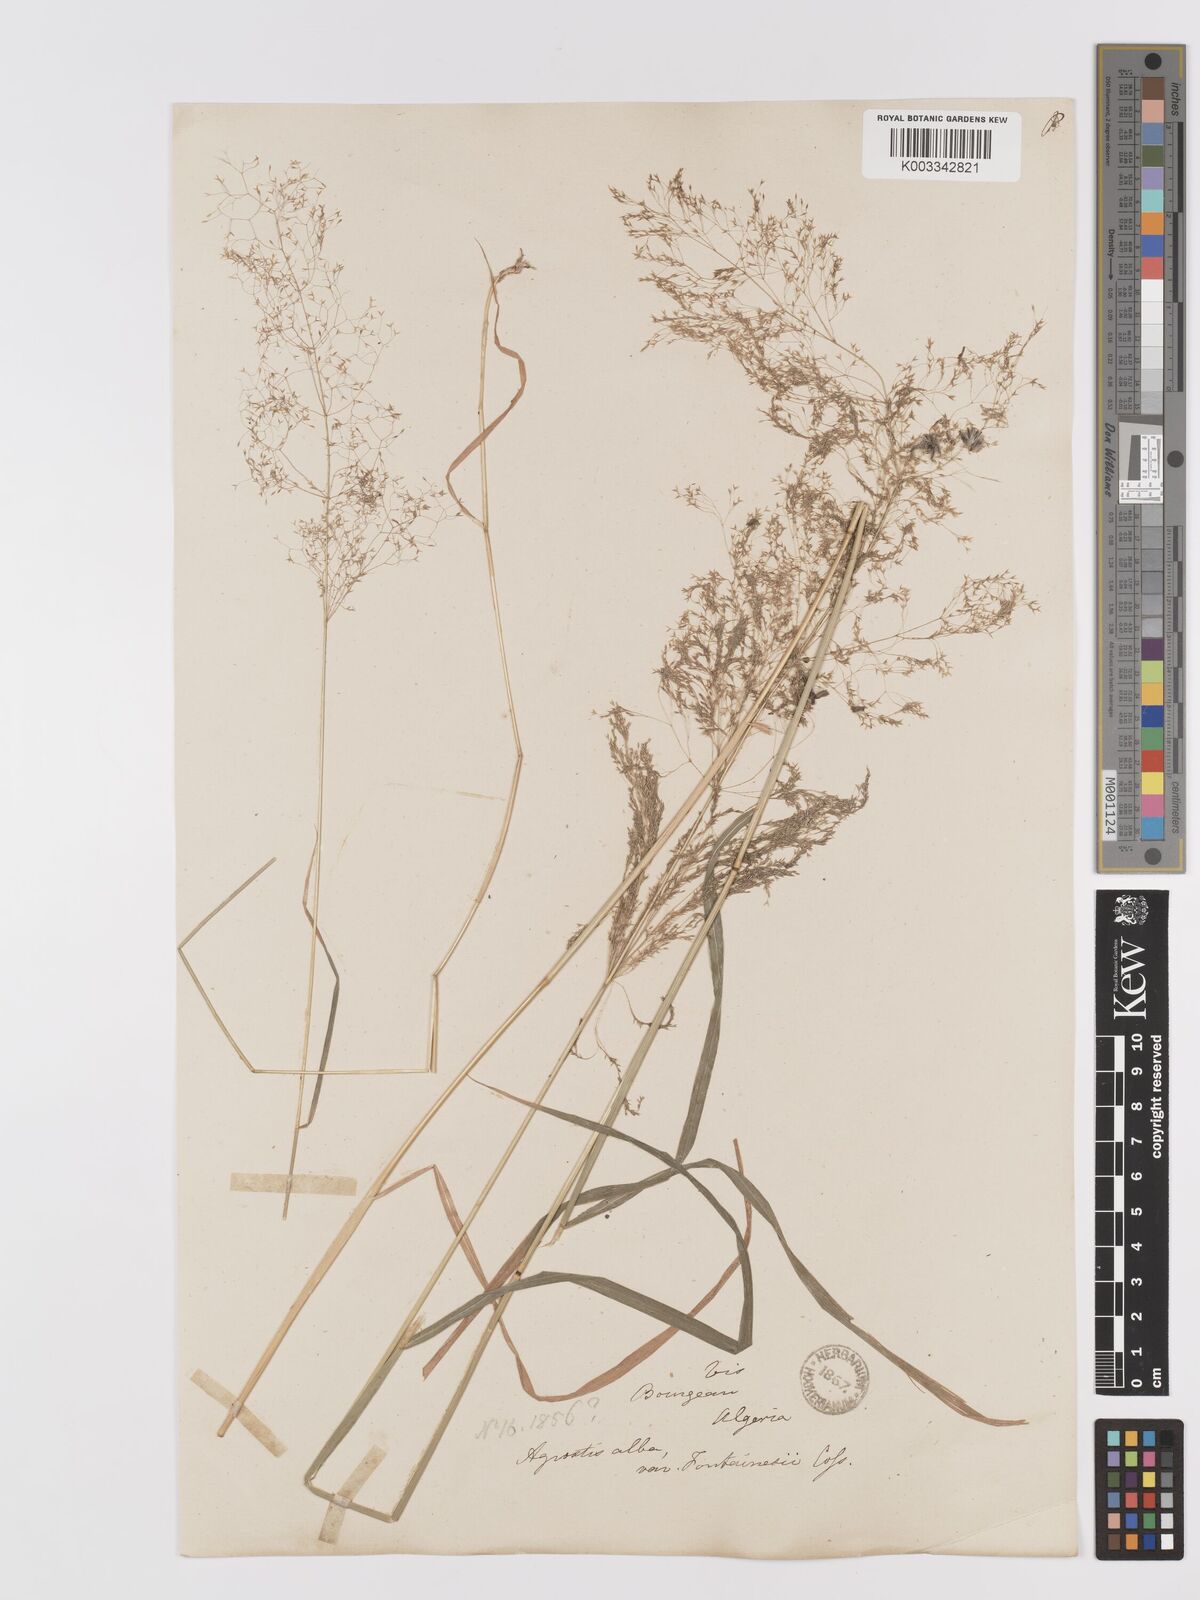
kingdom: Plantae
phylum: Tracheophyta
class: Liliopsida
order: Poales
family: Poaceae
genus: Agrostis
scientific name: Agrostis reuteri
